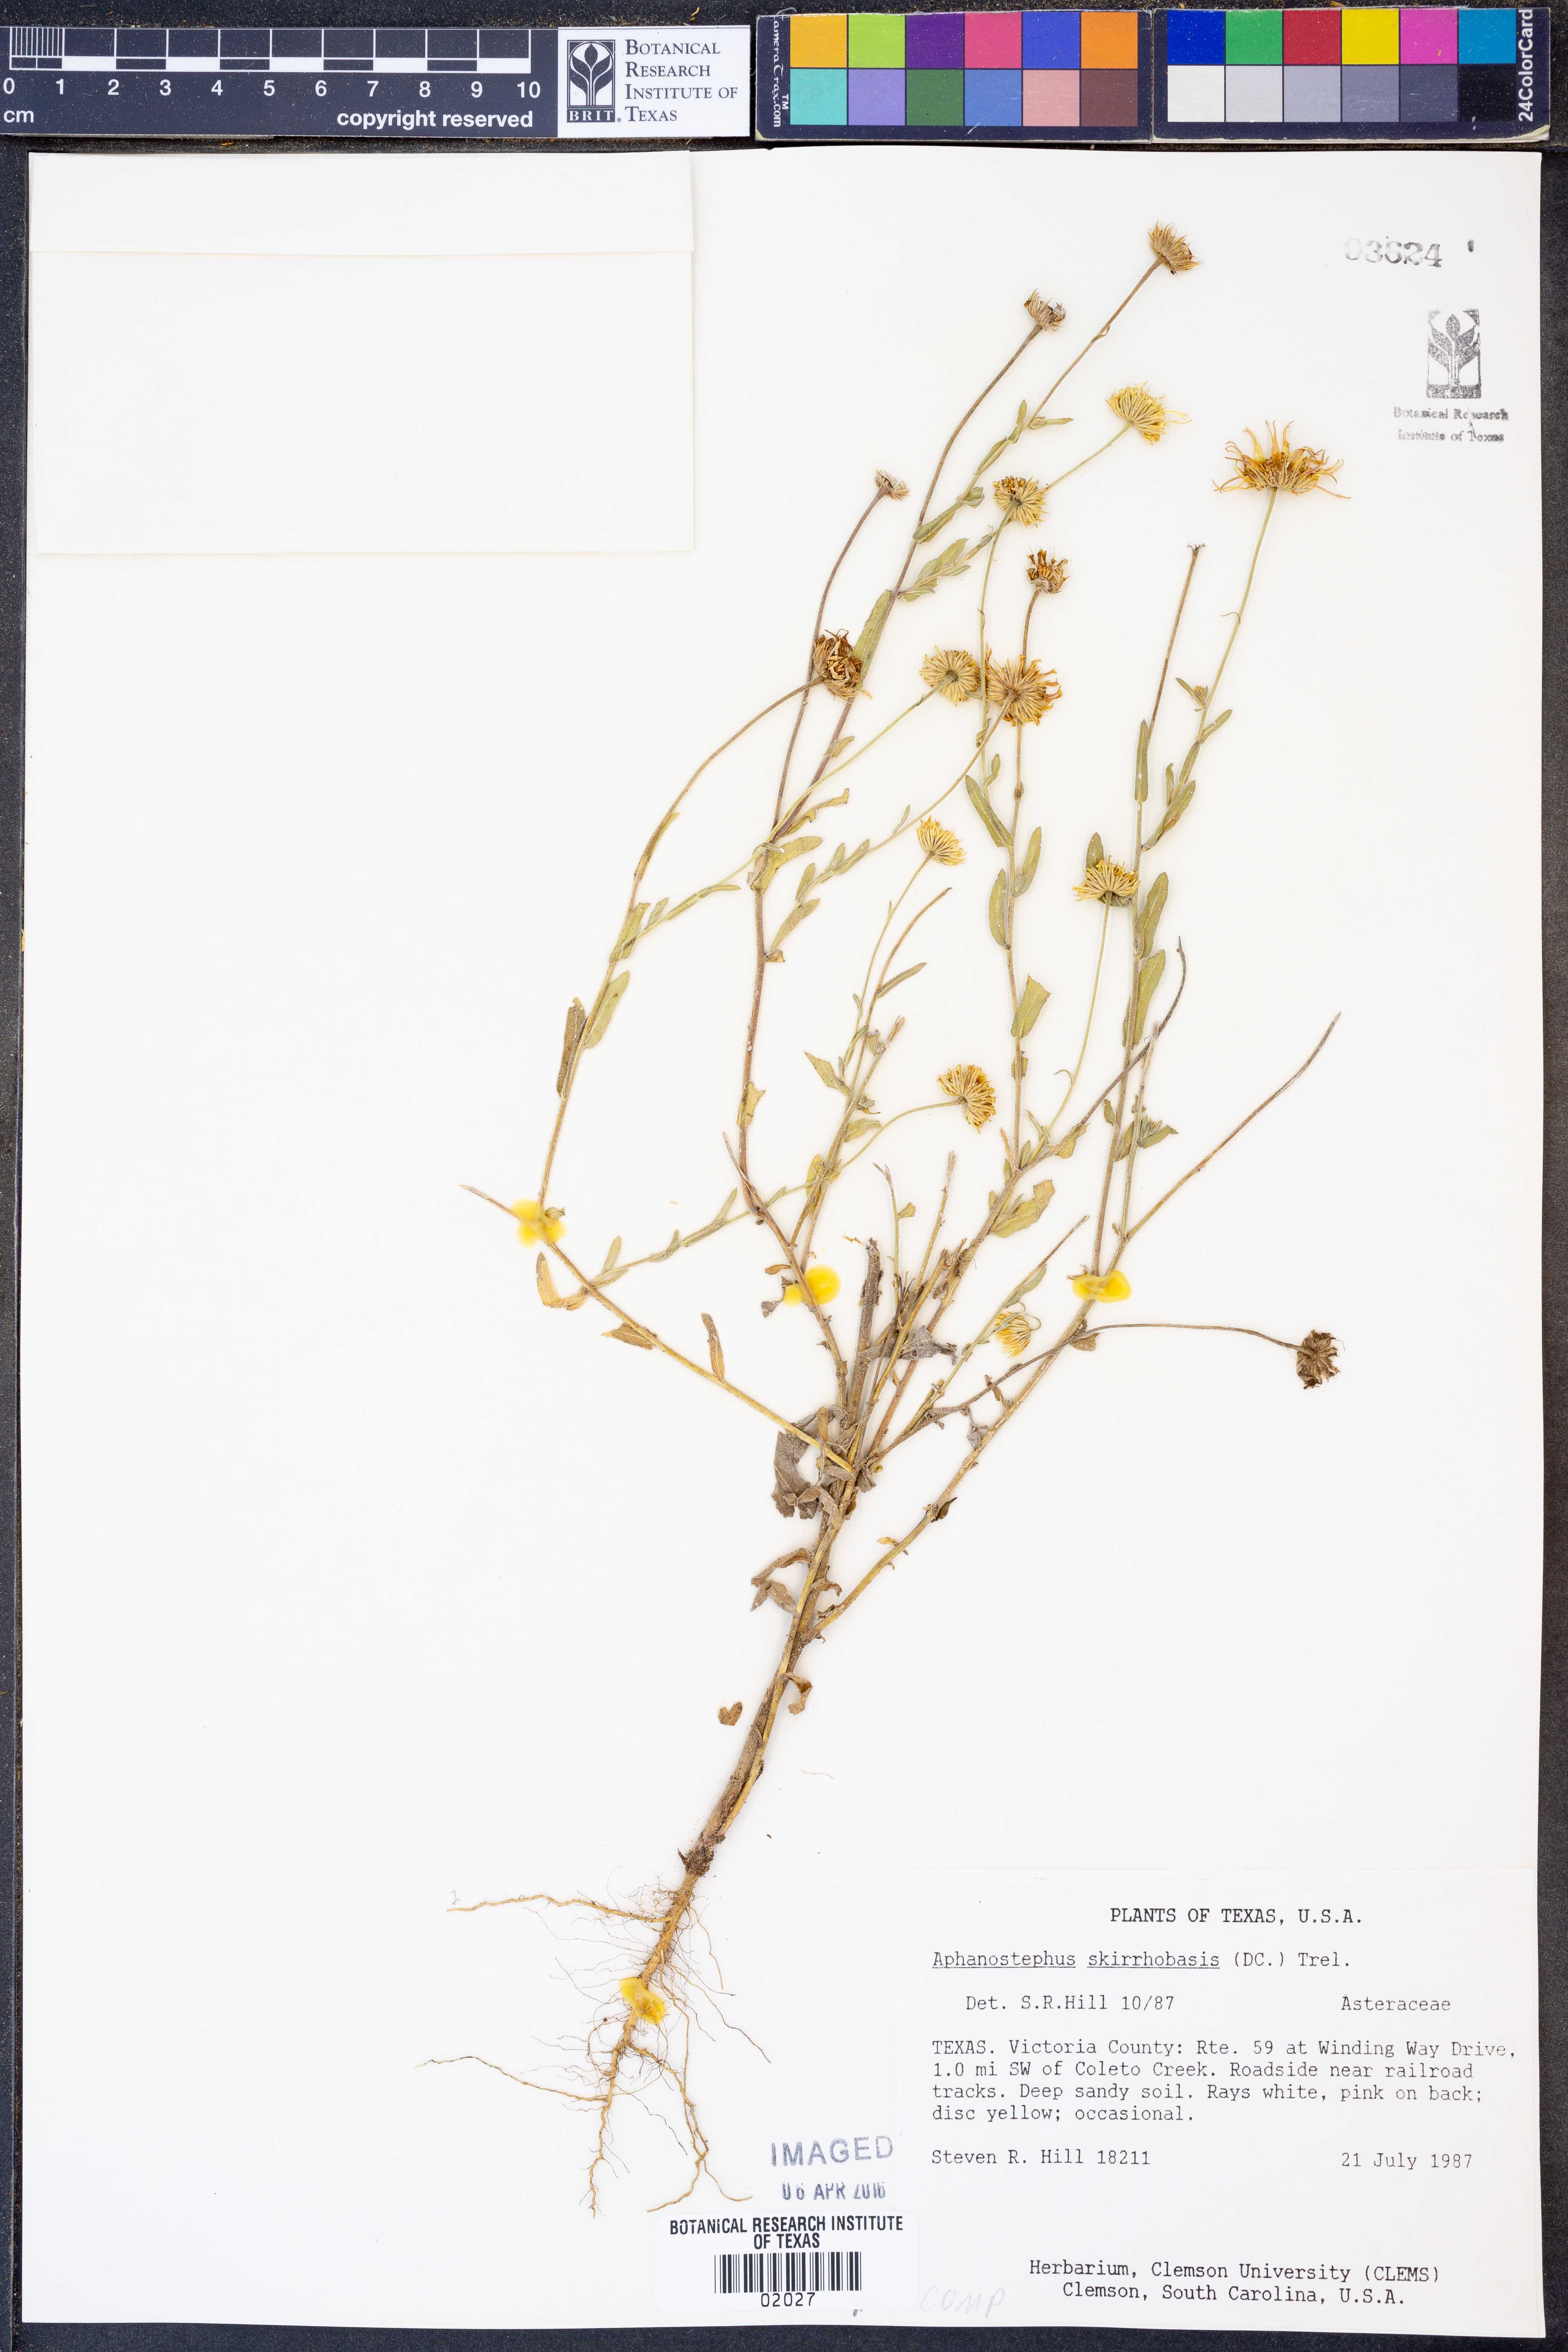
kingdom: Plantae
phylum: Tracheophyta
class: Magnoliopsida
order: Asterales
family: Asteraceae
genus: Aphanostephus
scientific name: Aphanostephus skirrhobasis
